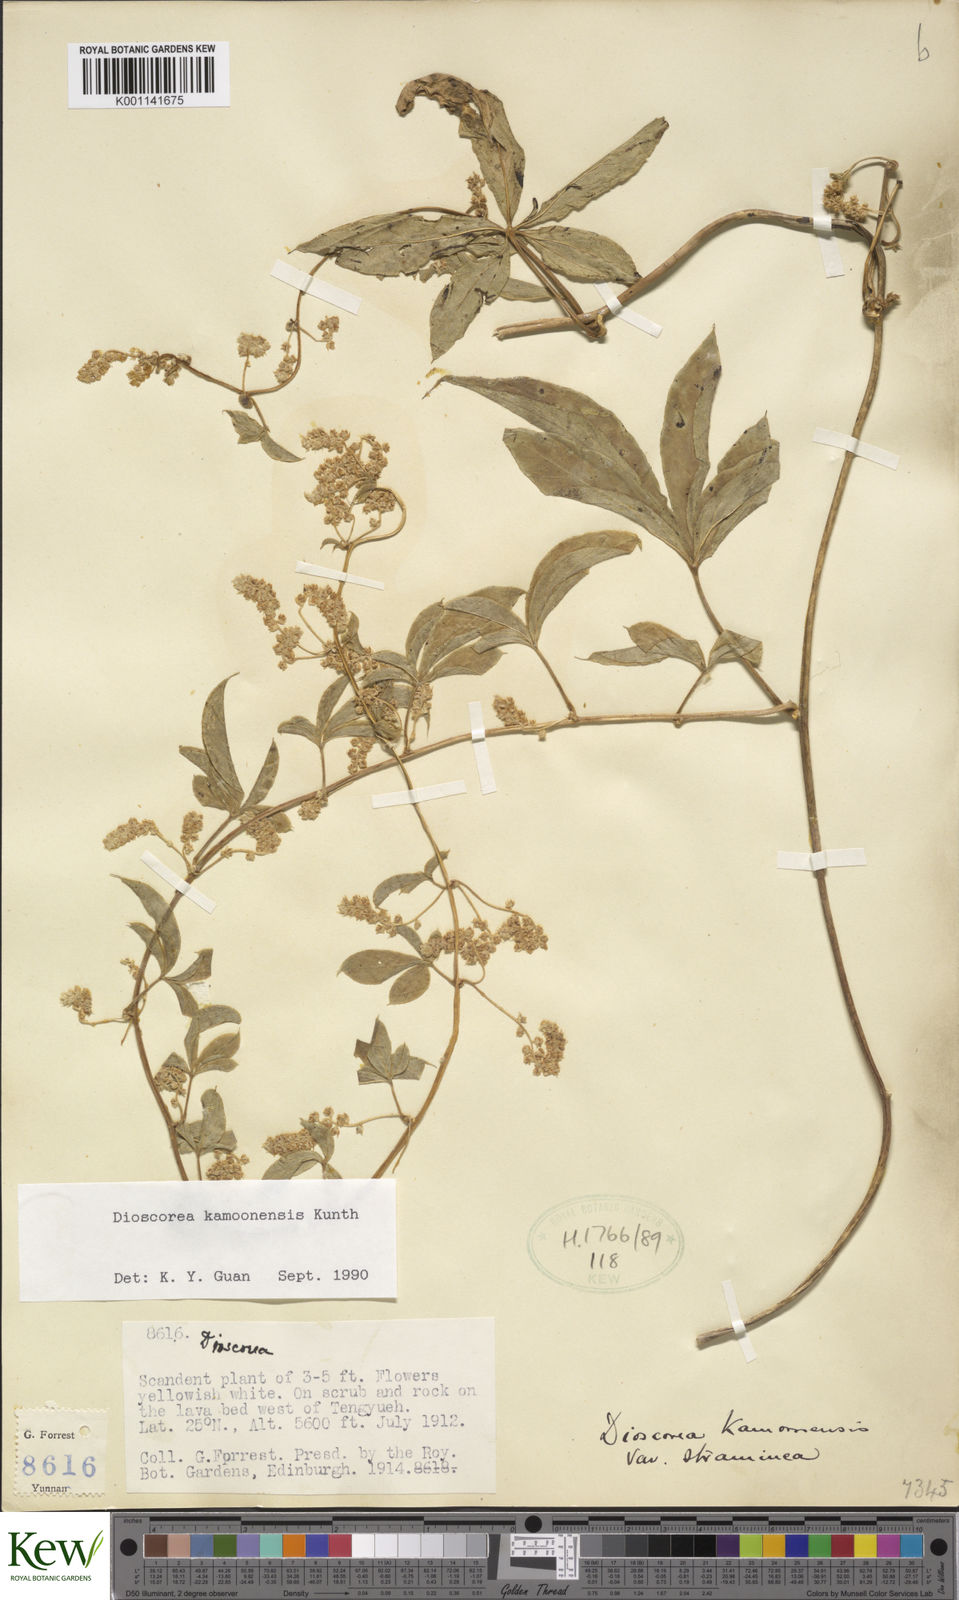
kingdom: Plantae
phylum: Tracheophyta
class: Liliopsida
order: Dioscoreales
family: Dioscoreaceae
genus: Dioscorea
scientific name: Dioscorea kamoonensis
